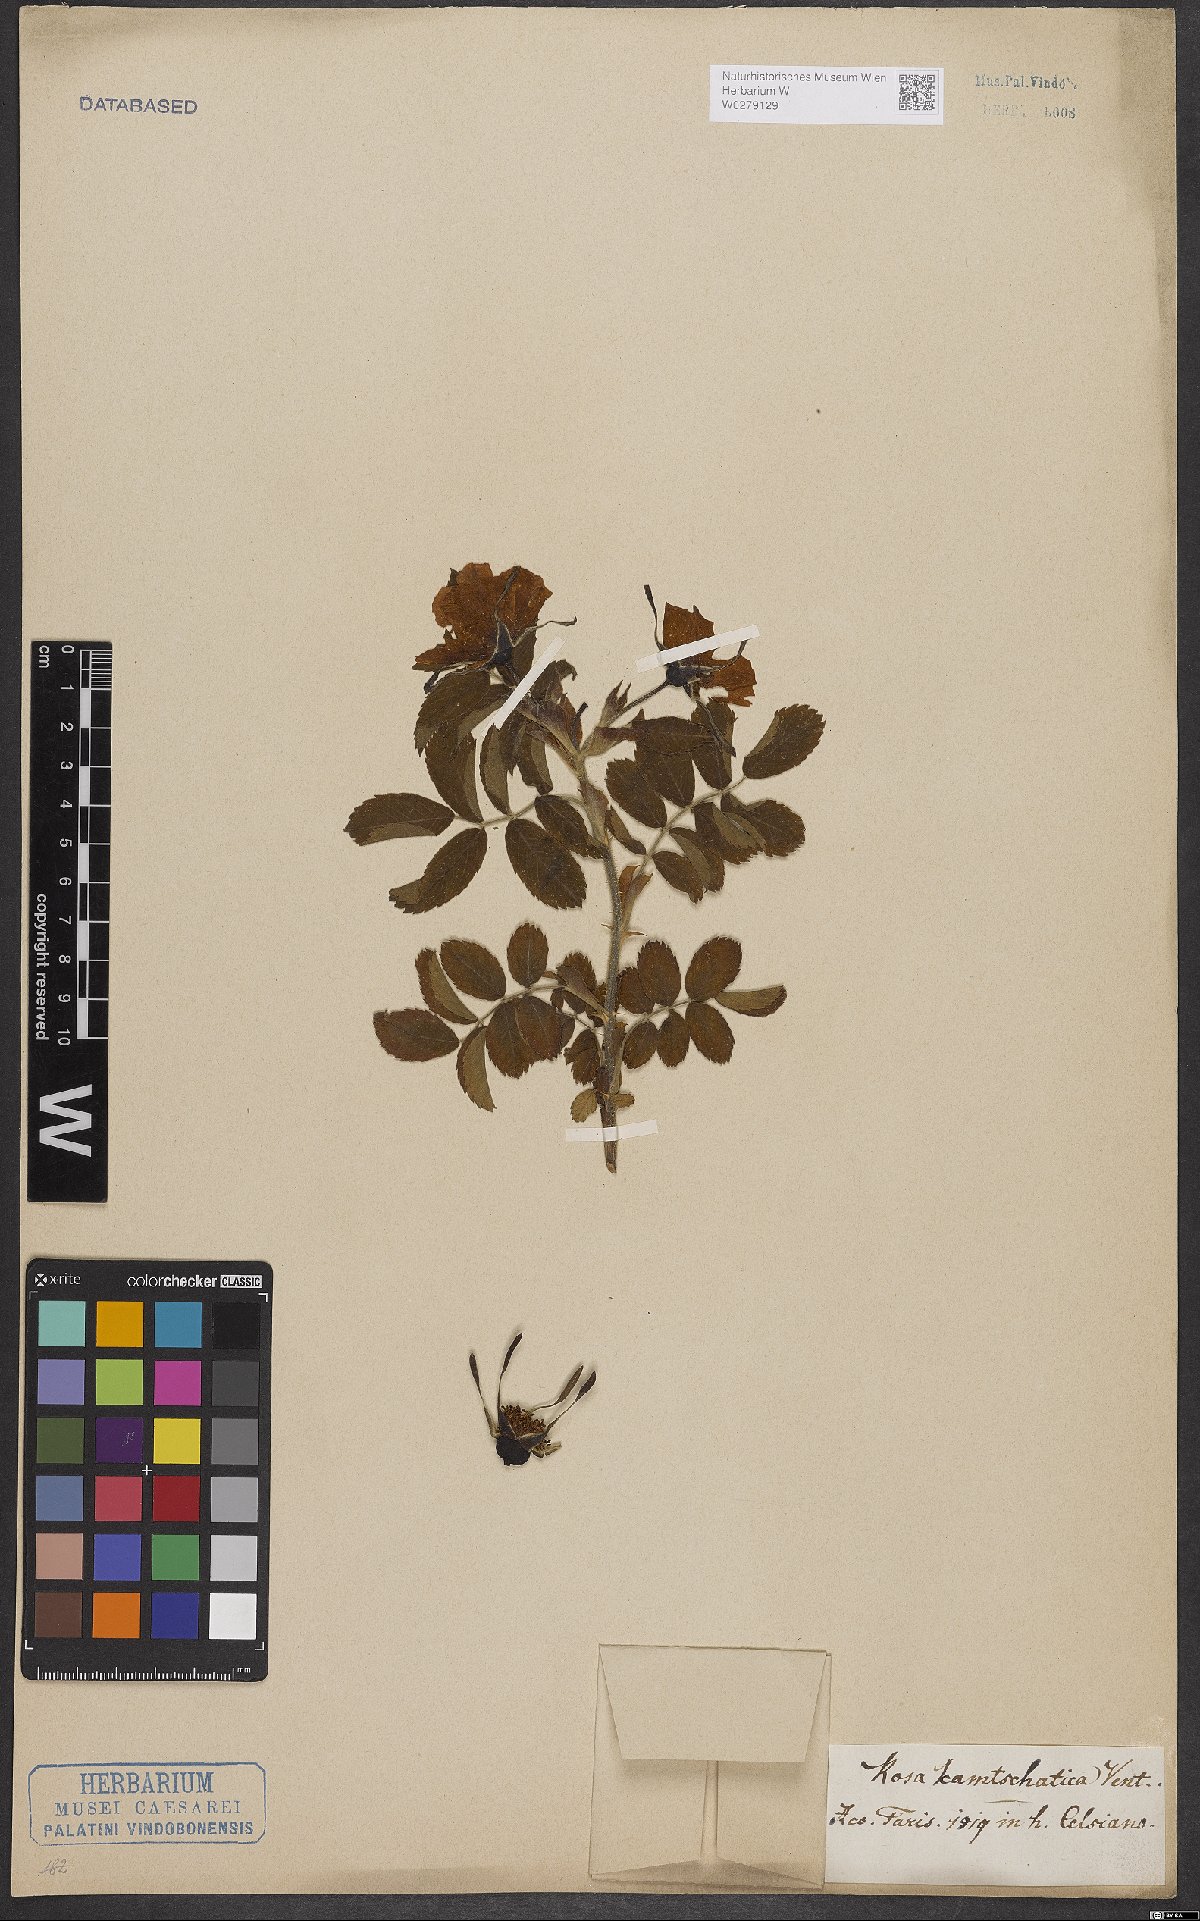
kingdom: Plantae
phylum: Tracheophyta
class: Magnoliopsida
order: Rosales
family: Rosaceae
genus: Rosa
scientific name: Rosa rugosa
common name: Japanese rose
